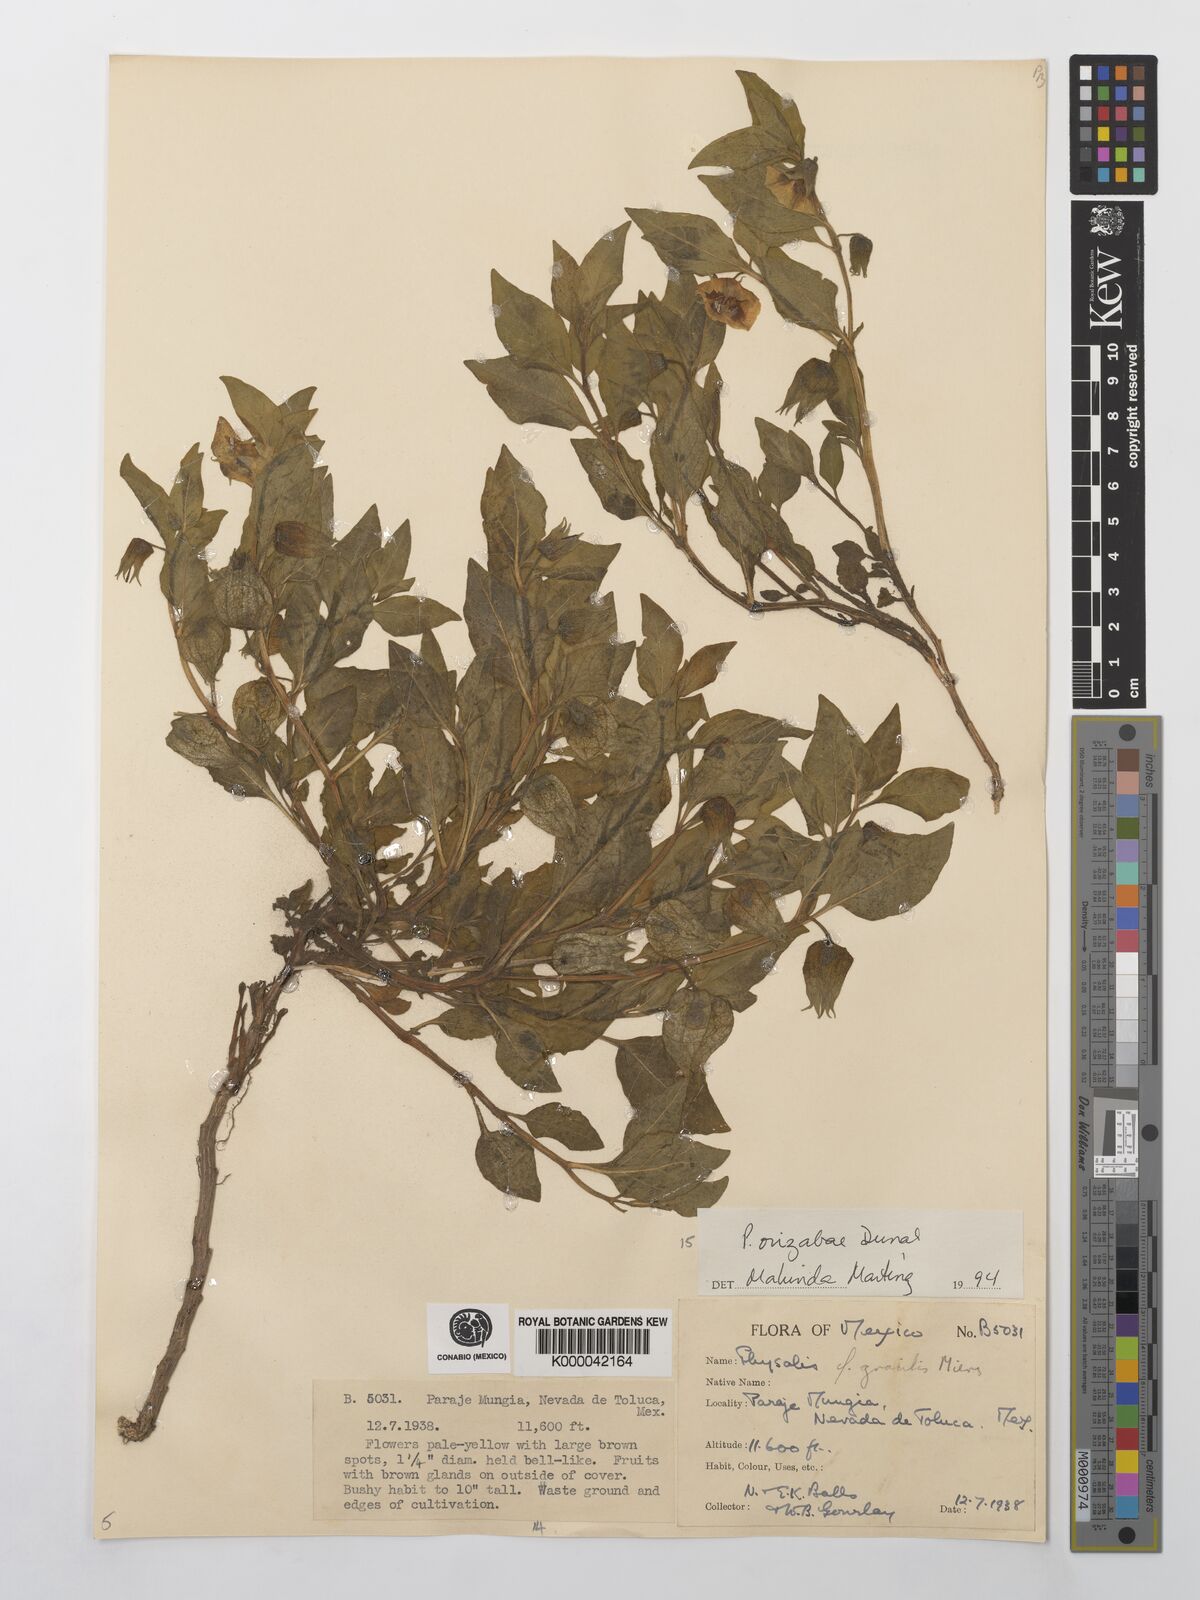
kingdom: Plantae
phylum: Tracheophyta
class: Magnoliopsida
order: Solanales
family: Solanaceae
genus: Physalis
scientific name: Physalis orizabae
